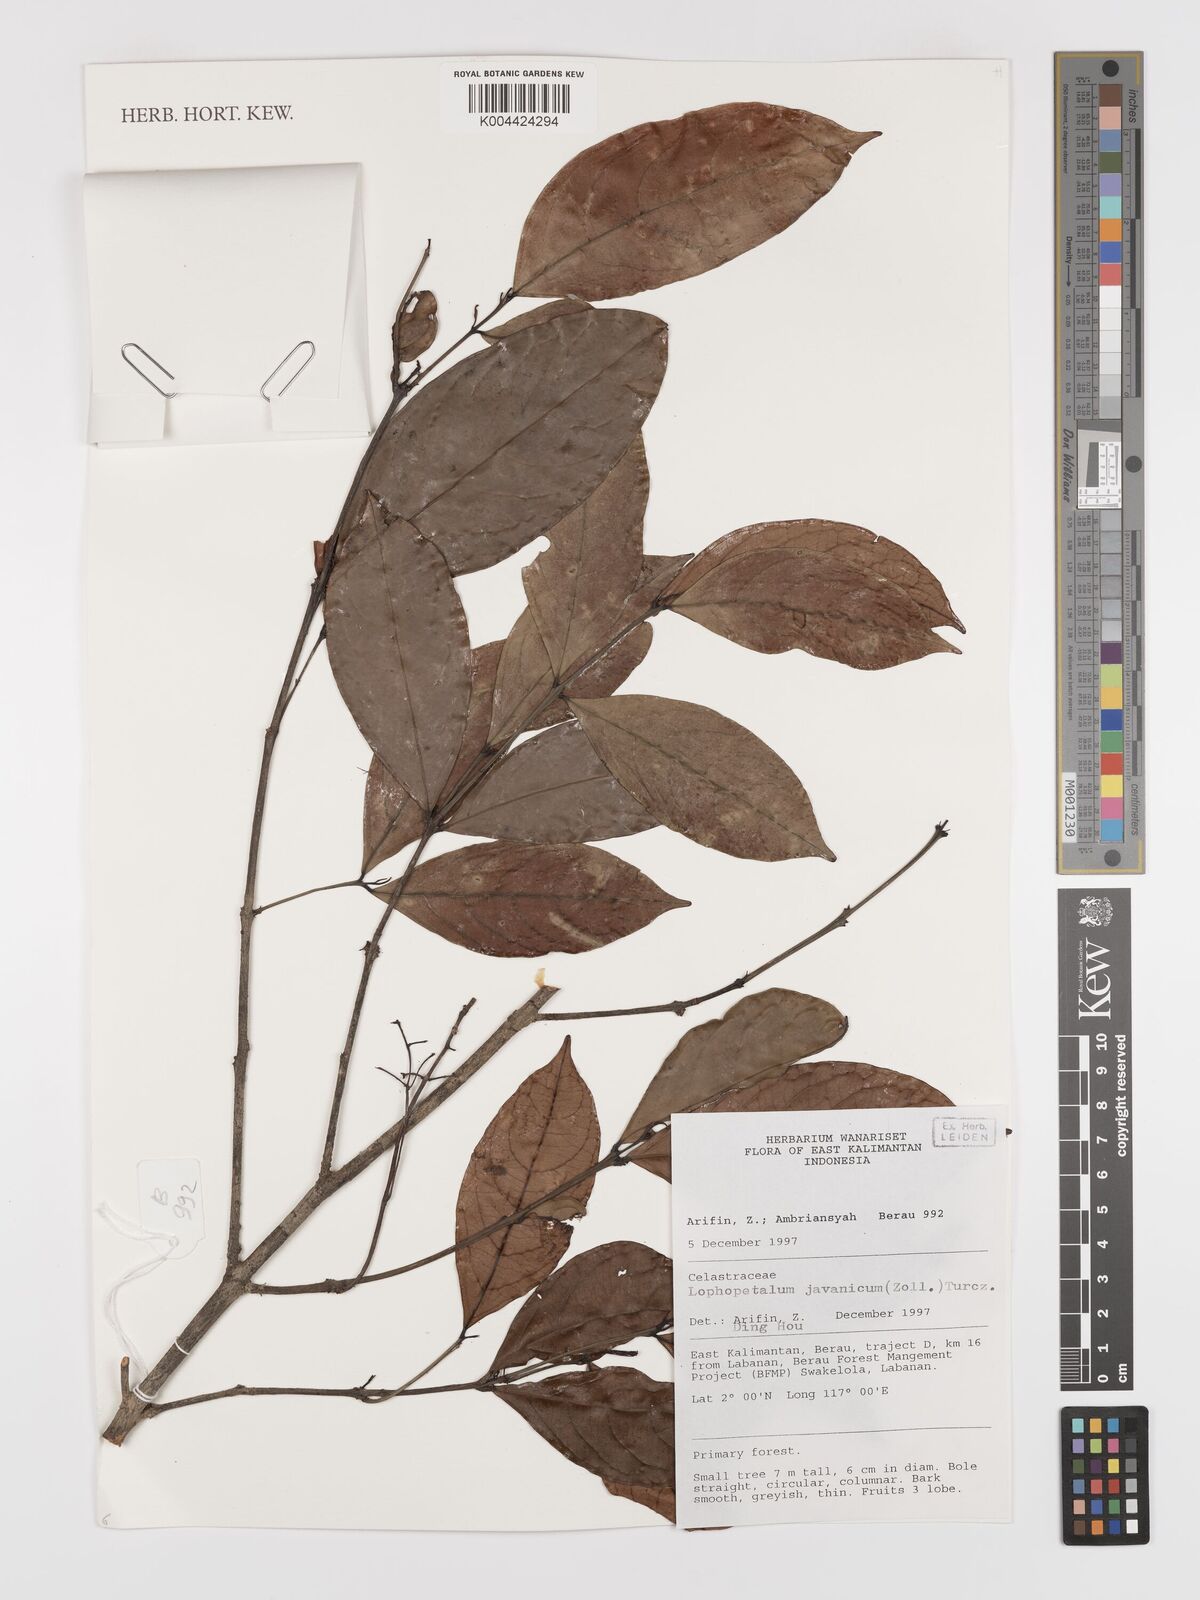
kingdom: Plantae
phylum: Tracheophyta
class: Magnoliopsida
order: Celastrales
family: Celastraceae
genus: Lophopetalum
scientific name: Lophopetalum javanicum
